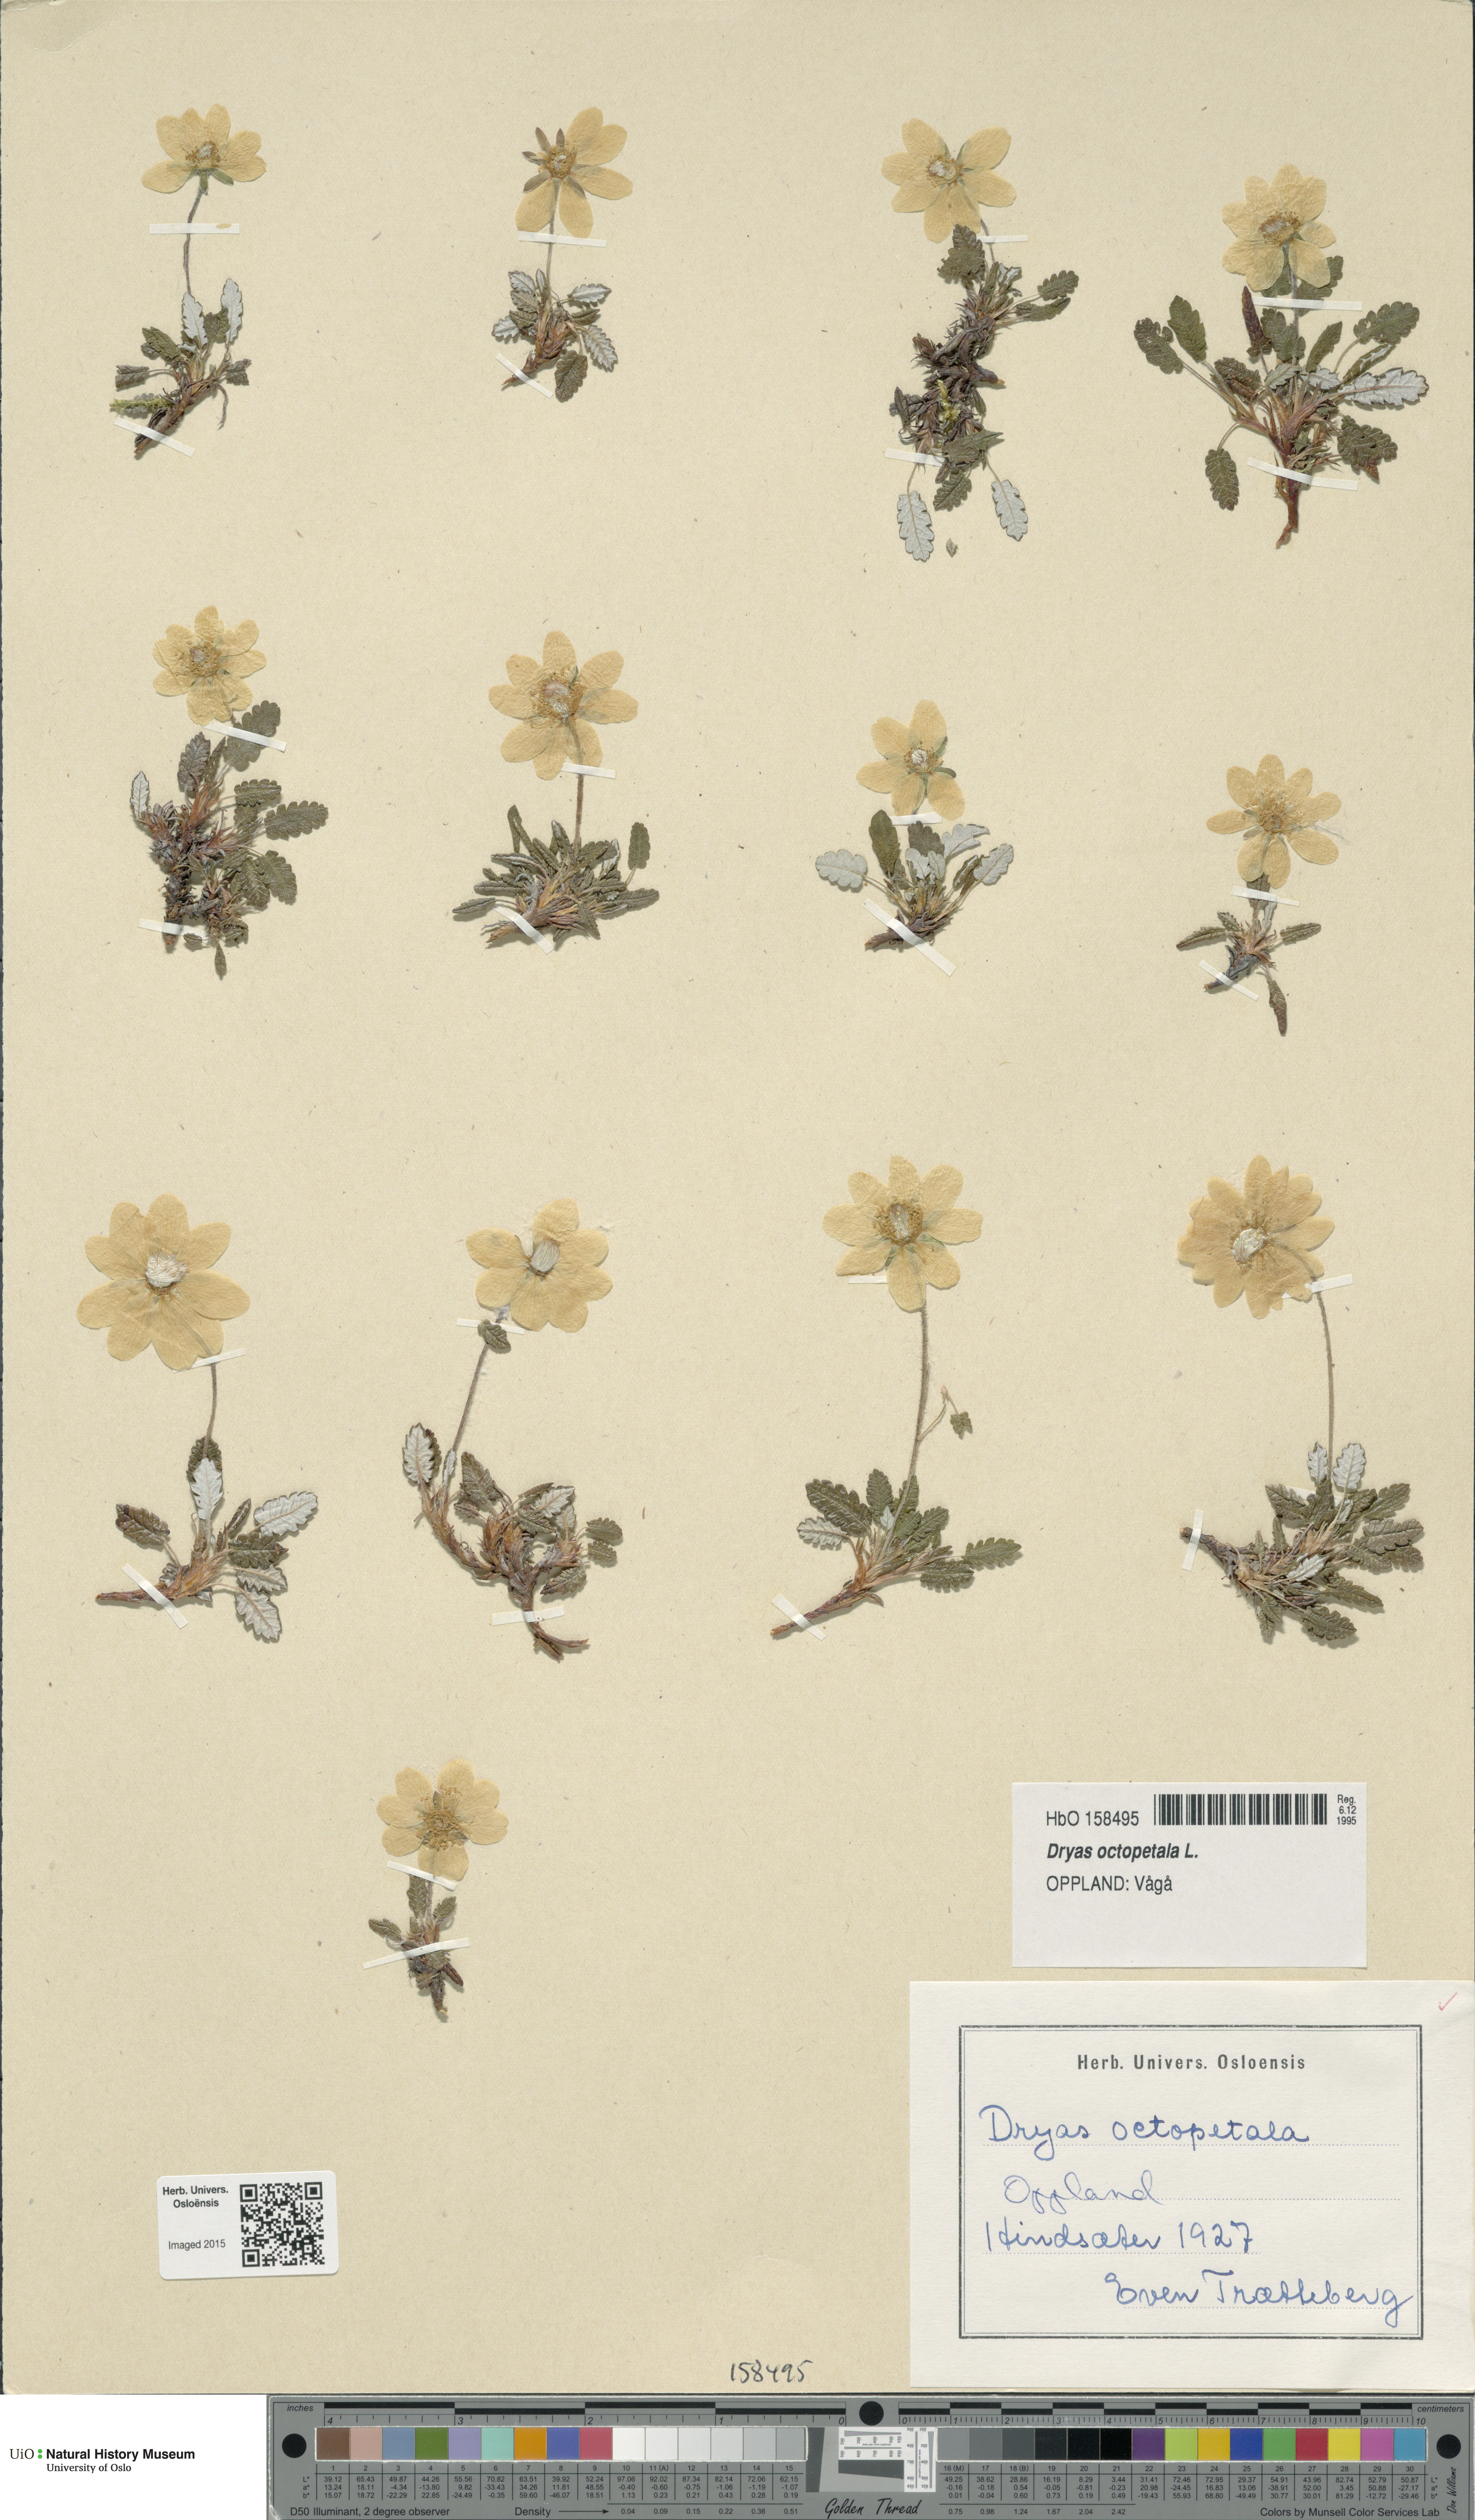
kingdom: Plantae
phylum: Tracheophyta
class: Magnoliopsida
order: Rosales
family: Rosaceae
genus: Dryas
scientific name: Dryas octopetala
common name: Eight-petal mountain-avens
